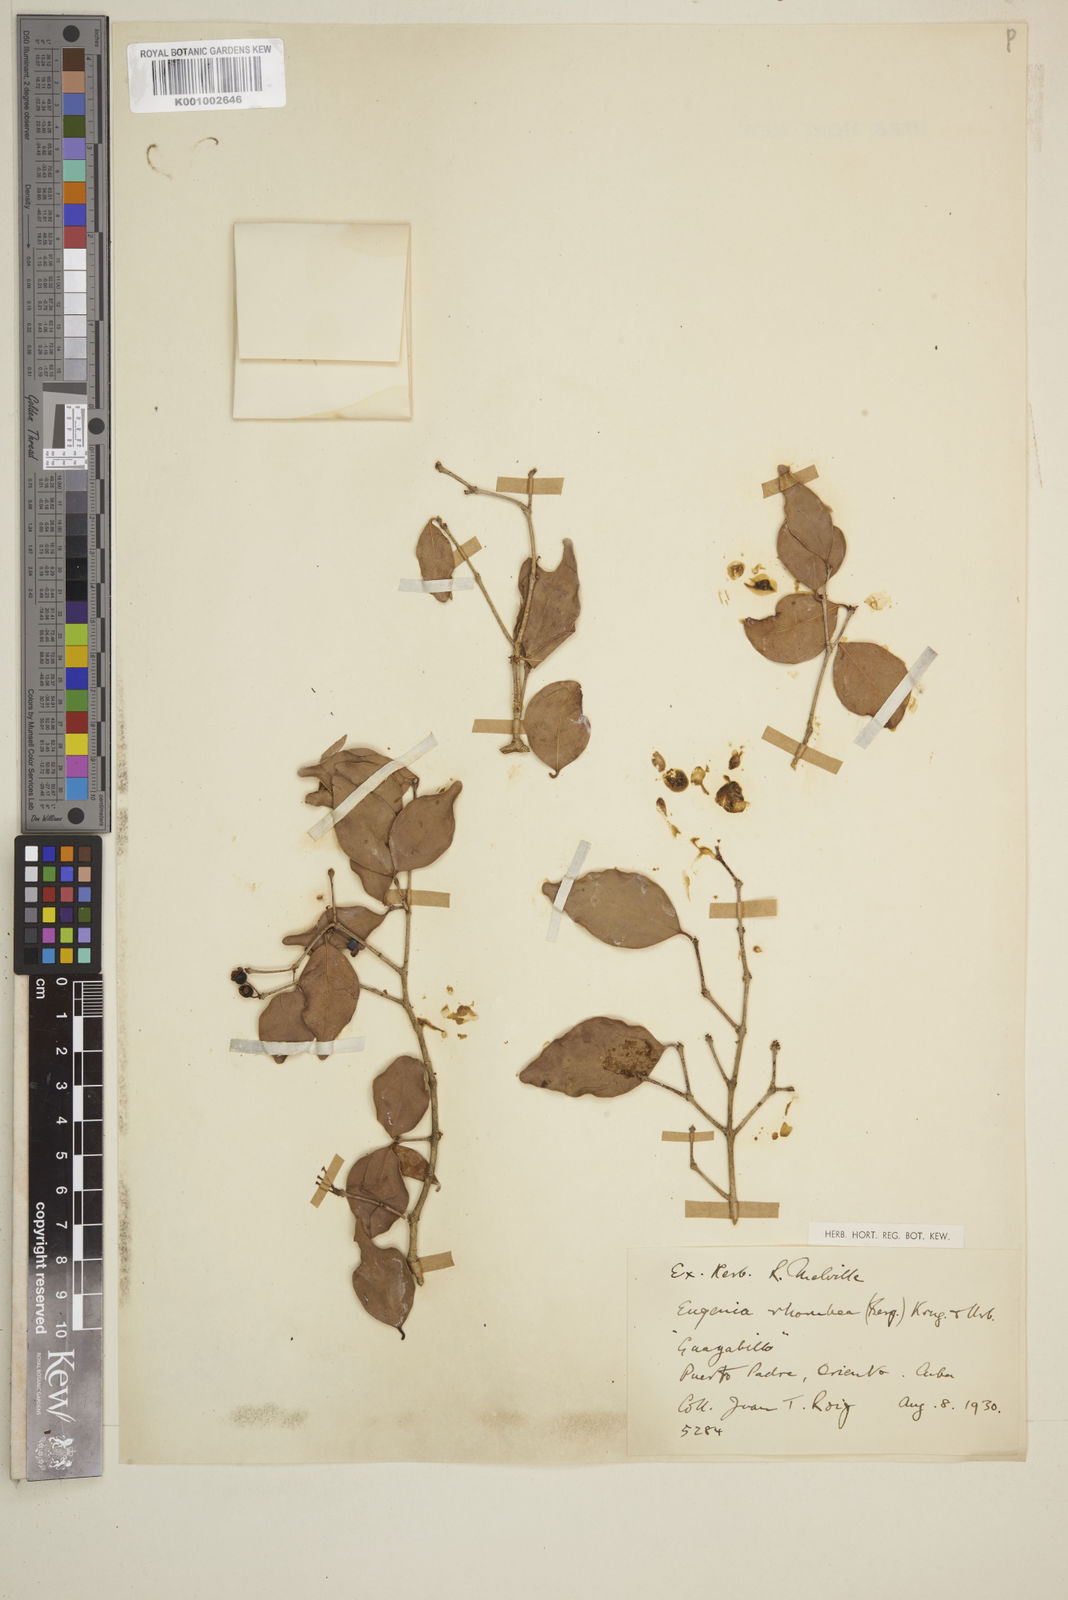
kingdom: Plantae
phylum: Tracheophyta
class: Magnoliopsida
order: Myrtales
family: Myrtaceae
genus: Eugenia
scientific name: Eugenia rhombea
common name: Pigeon berry
